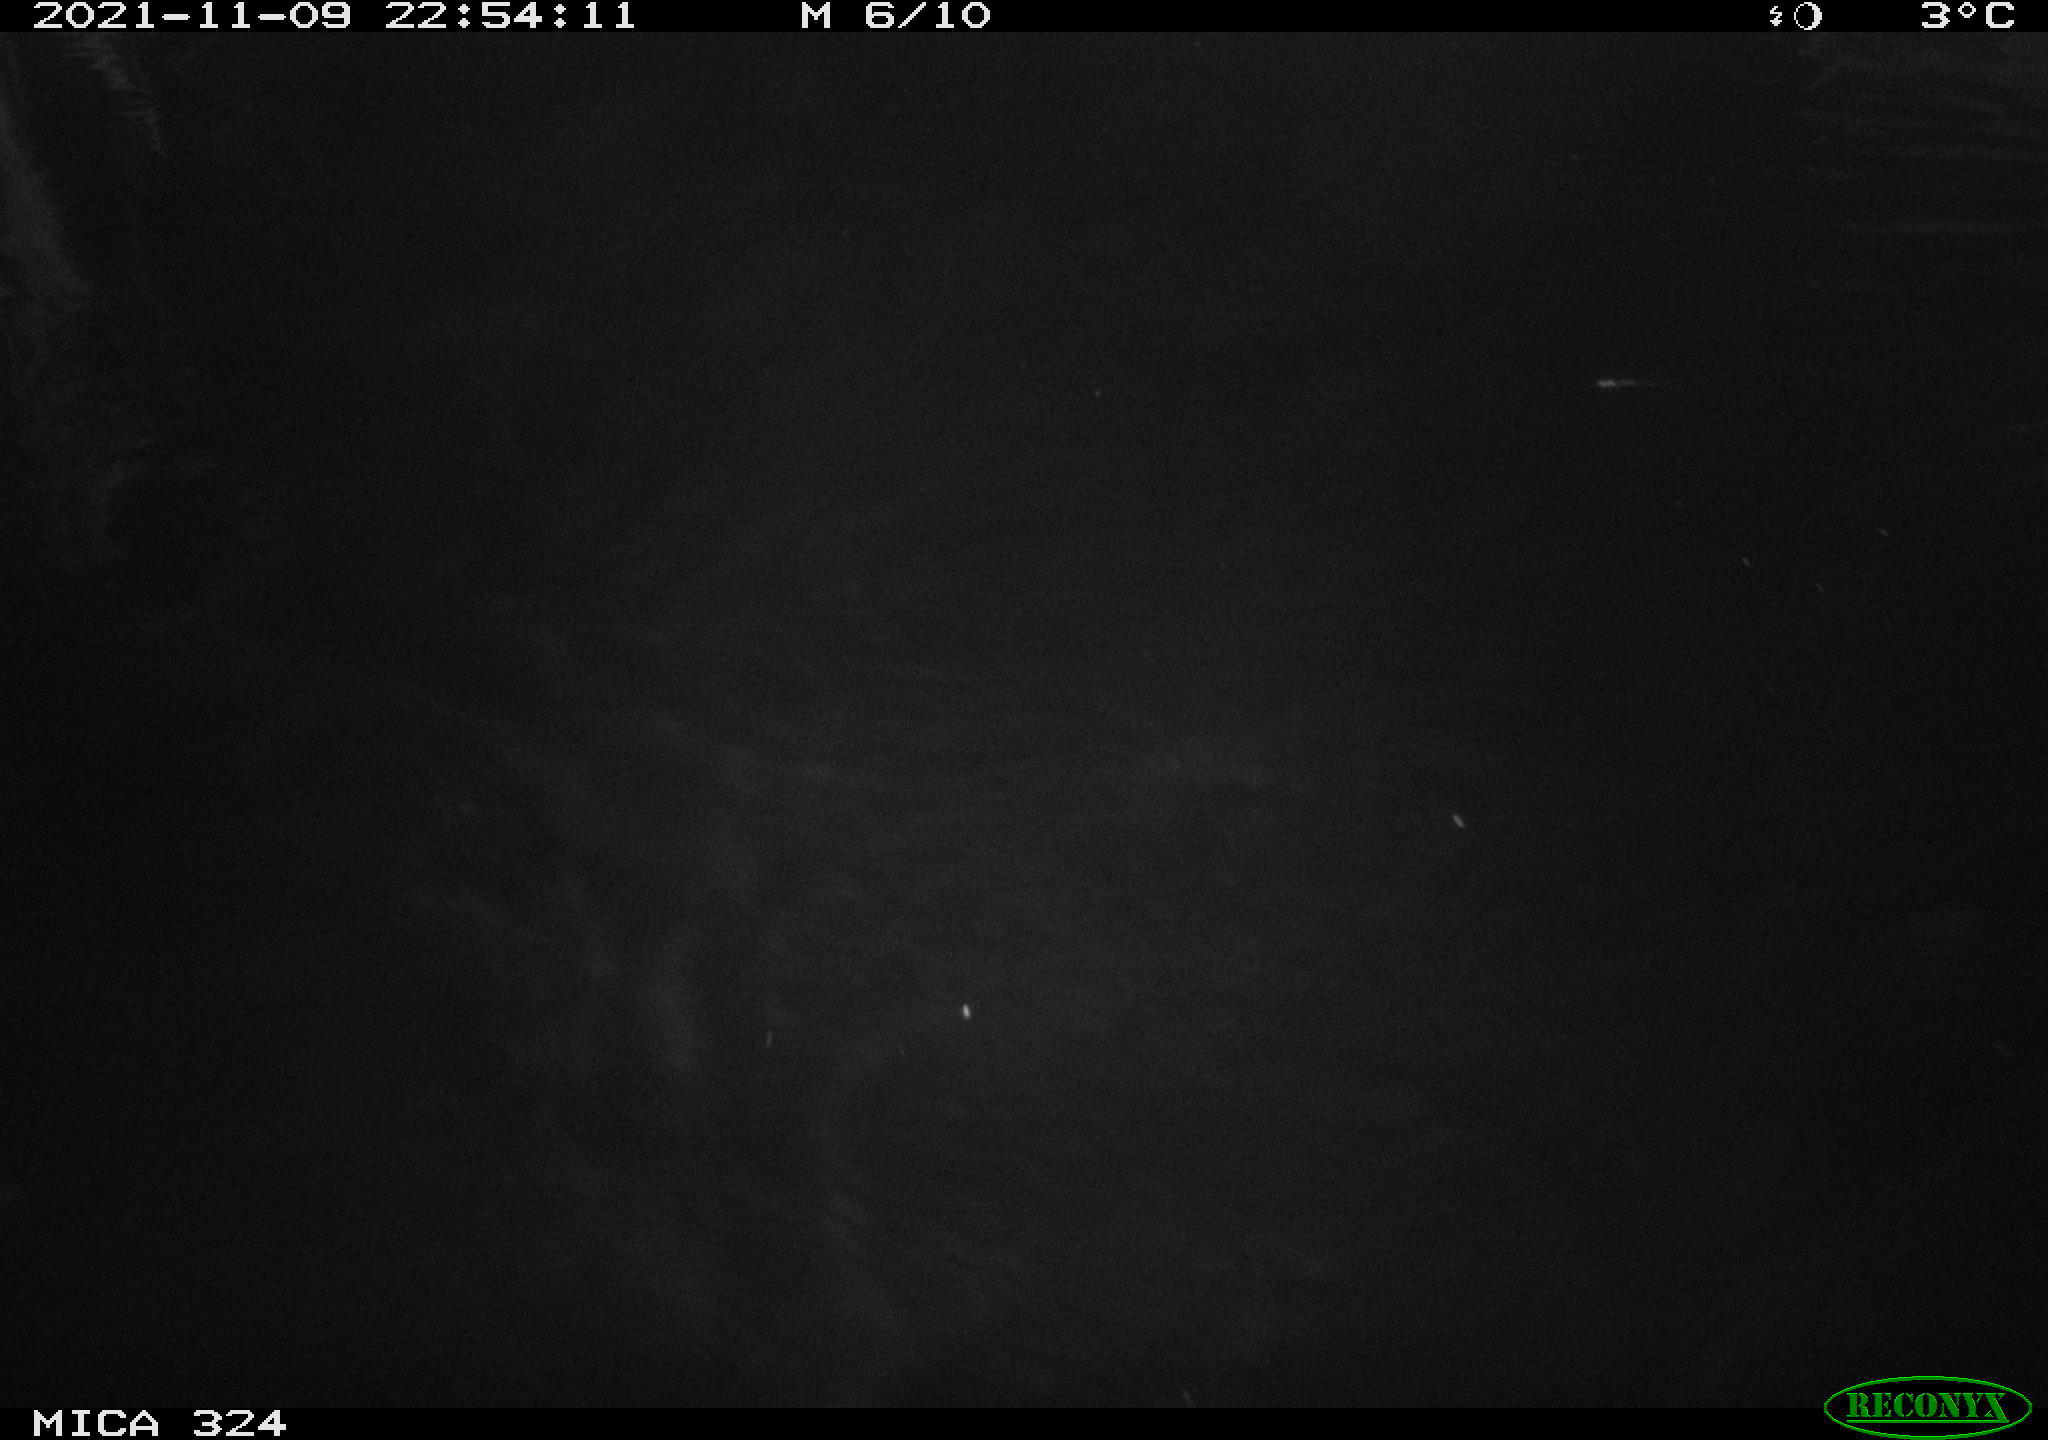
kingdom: Animalia
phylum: Chordata
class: Mammalia
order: Rodentia
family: Cricetidae
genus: Ondatra
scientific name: Ondatra zibethicus
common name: Muskrat
